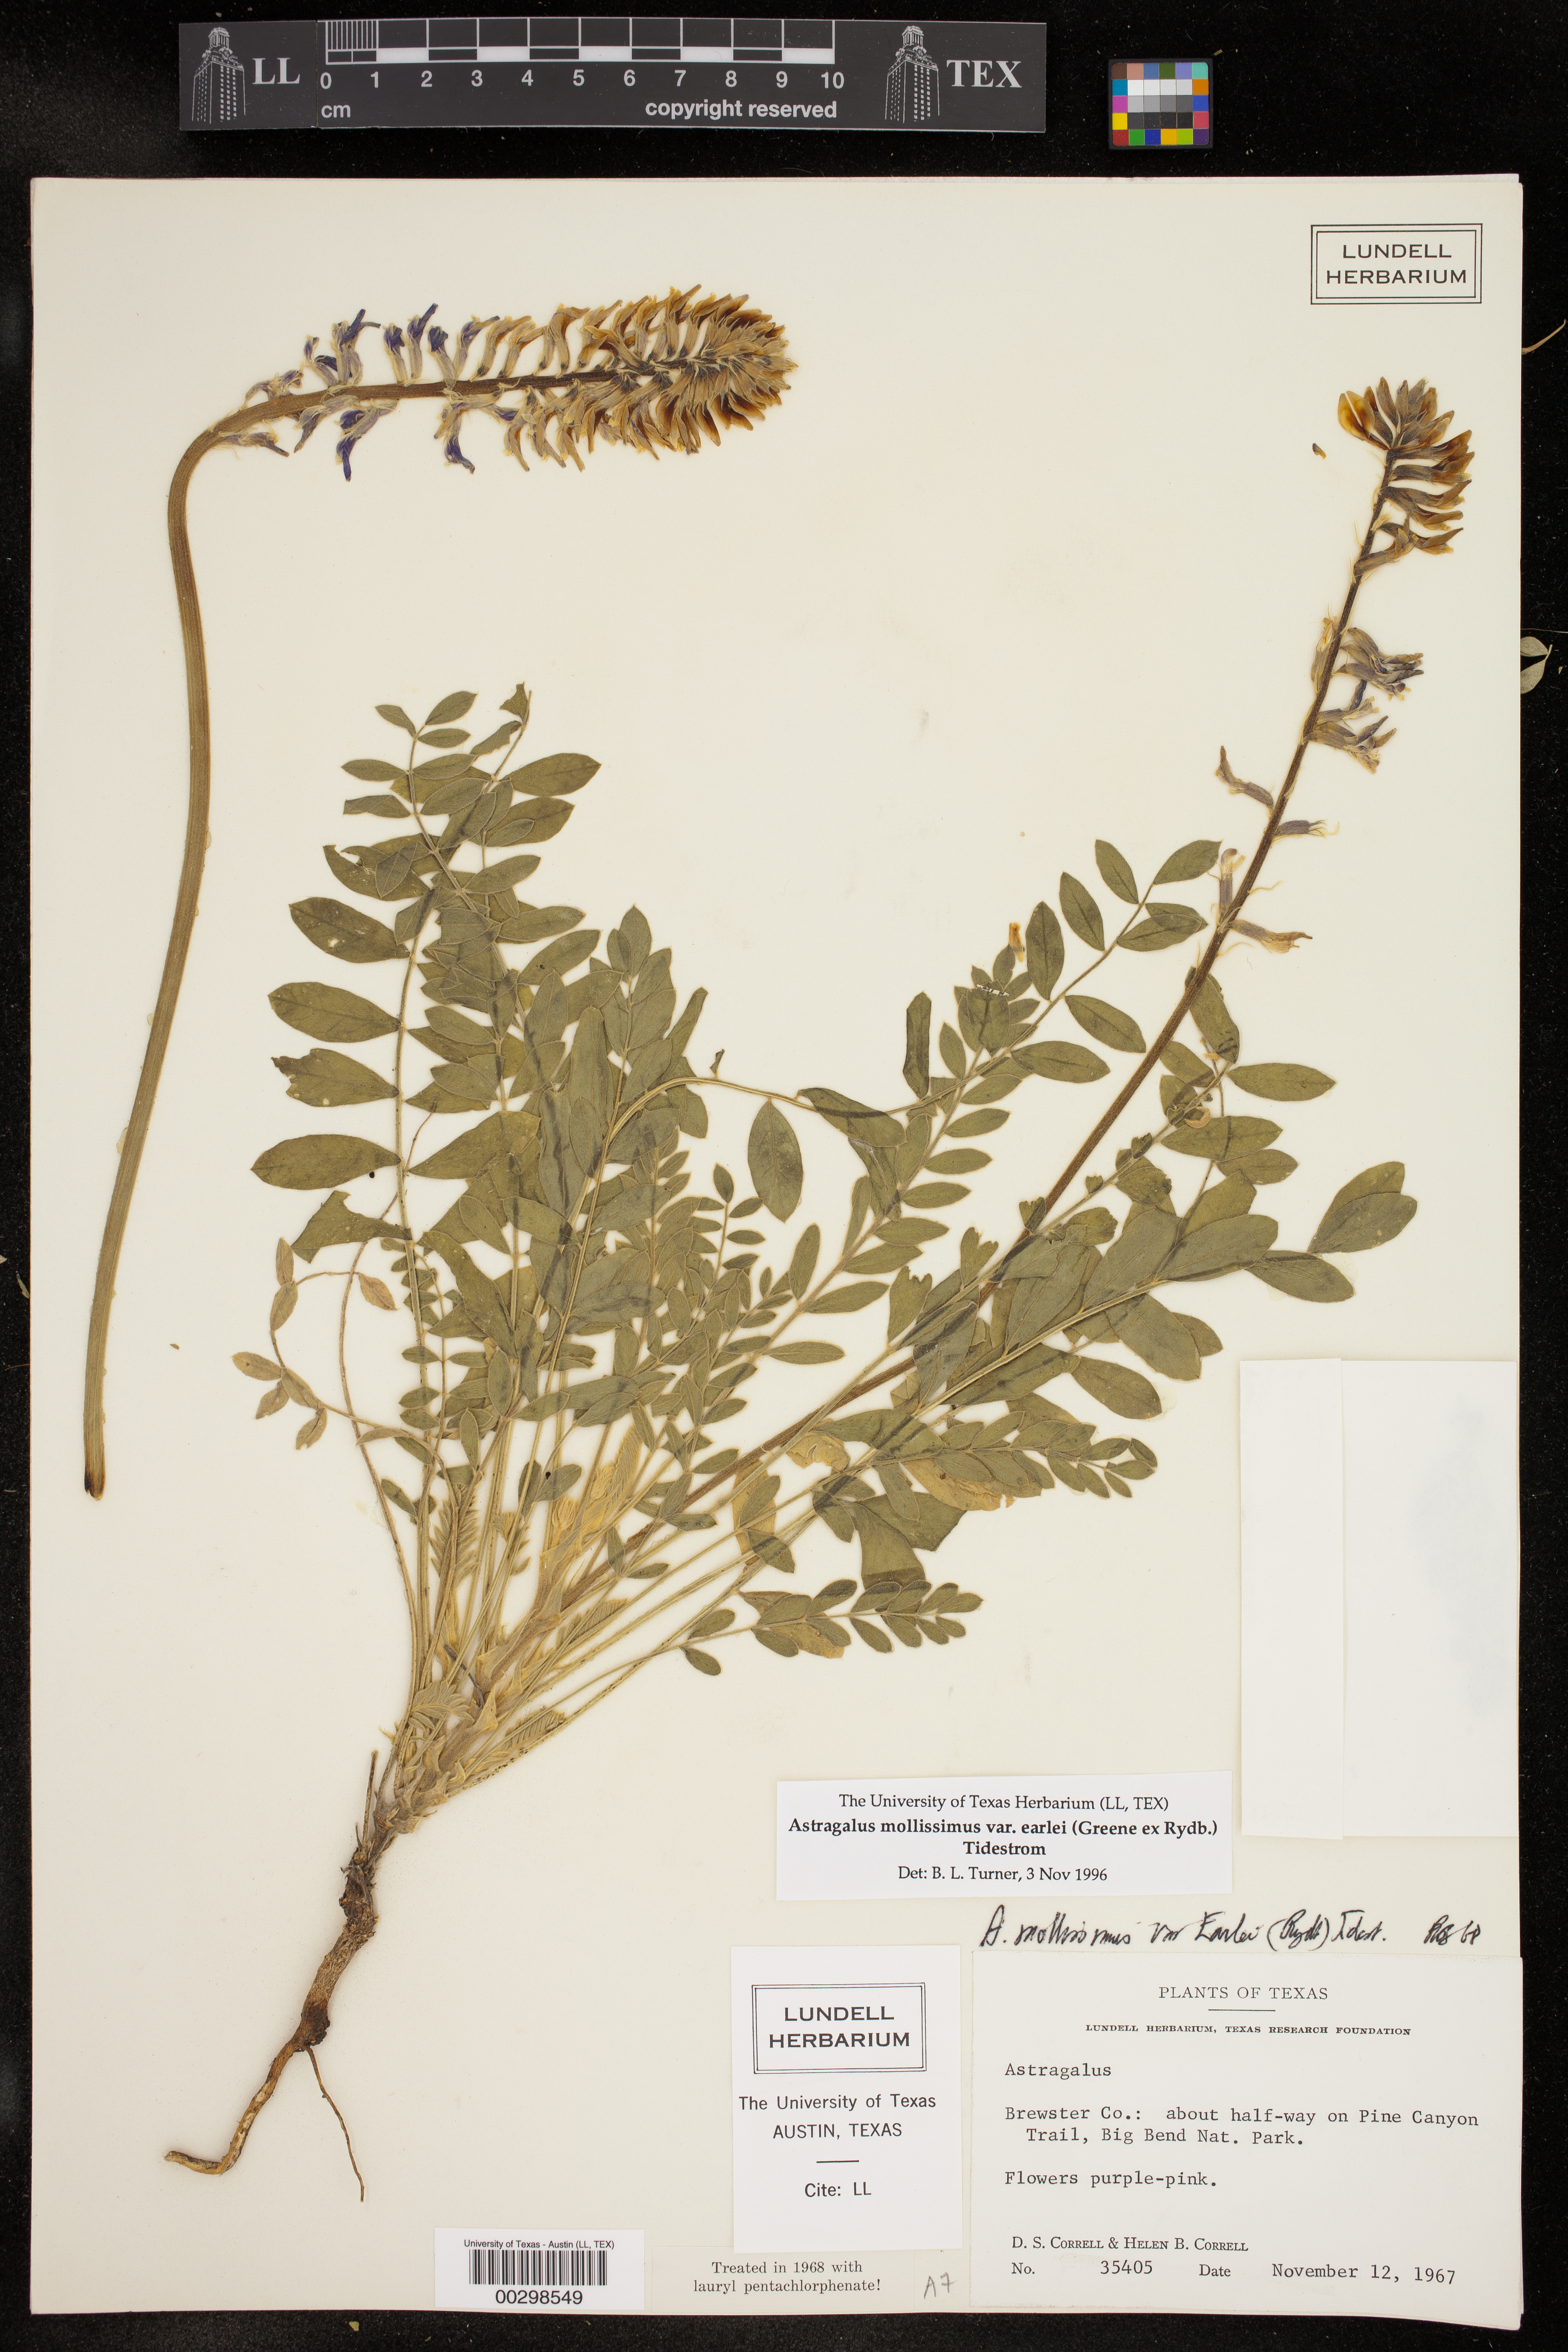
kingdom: Plantae
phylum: Tracheophyta
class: Magnoliopsida
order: Fabales
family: Fabaceae
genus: Astragalus
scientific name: Astragalus mollissimus
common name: Woolly locoweed
